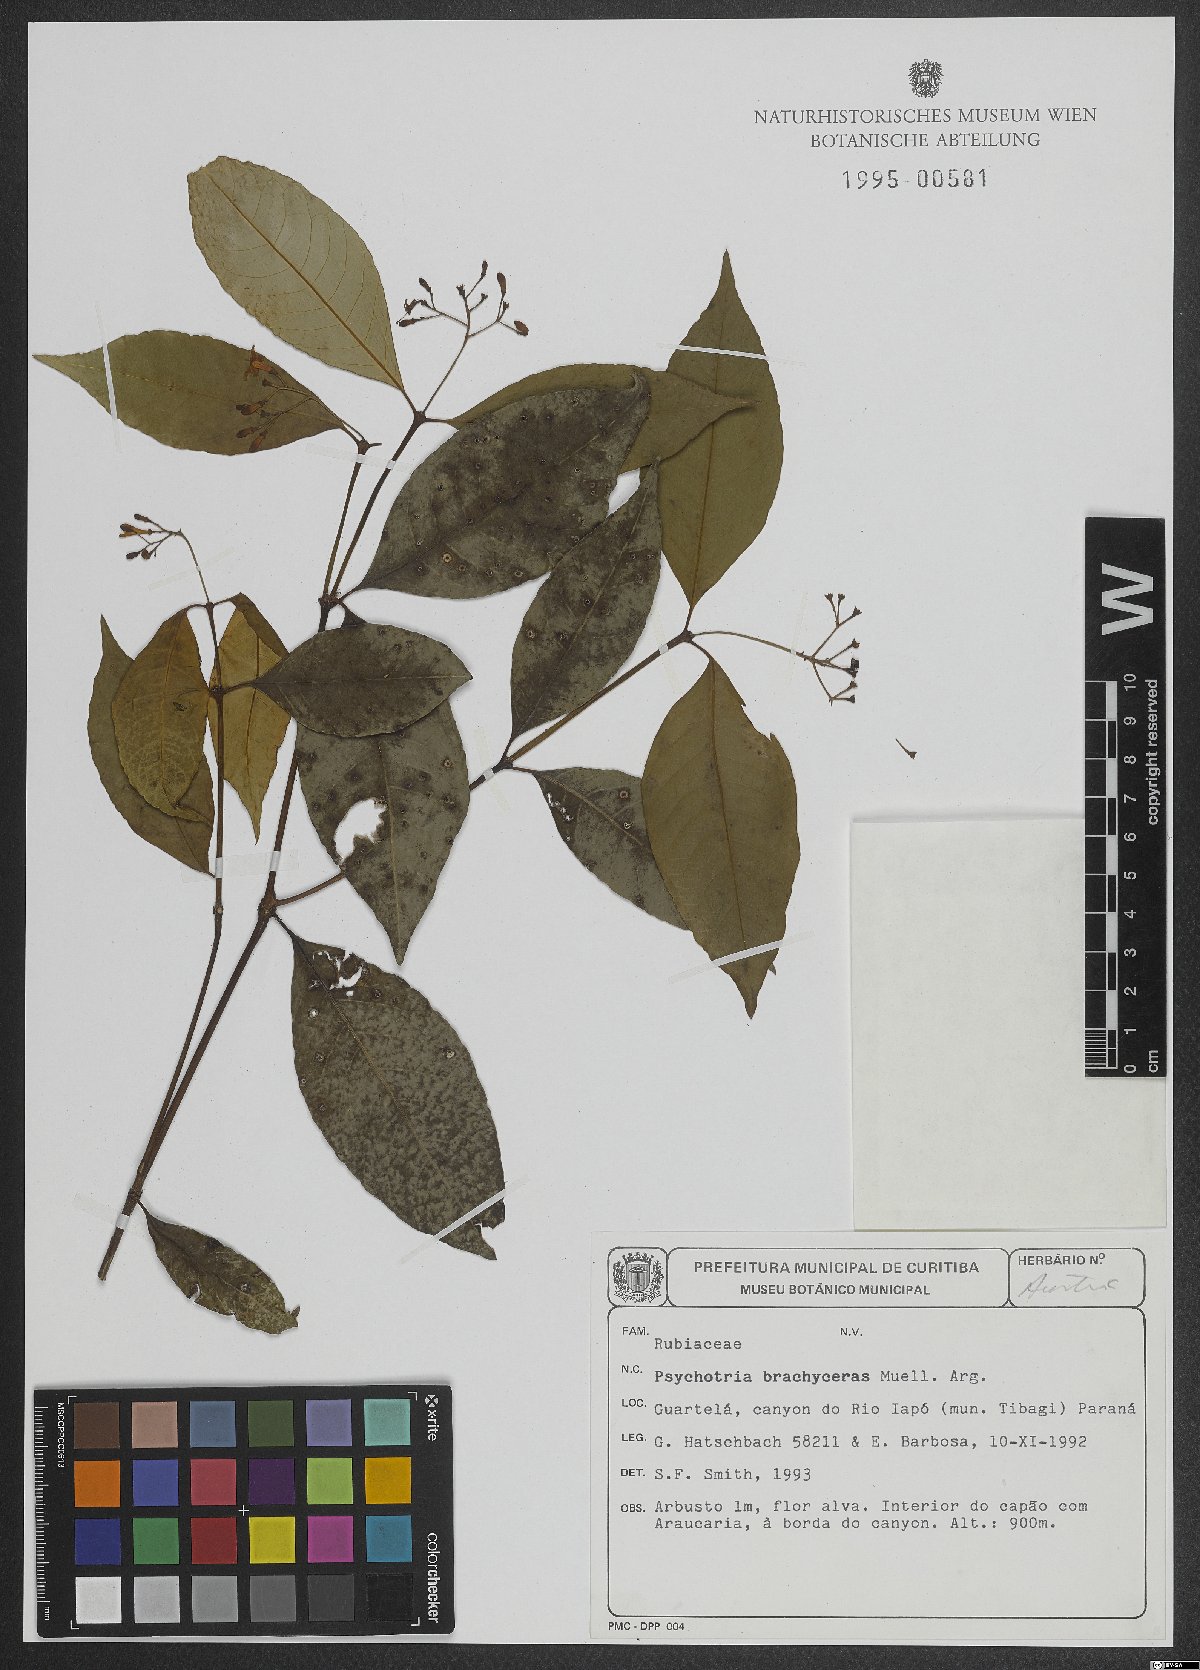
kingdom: Plantae
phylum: Tracheophyta
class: Magnoliopsida
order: Gentianales
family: Rubiaceae
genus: Psychotria
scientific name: Psychotria brachyceras
